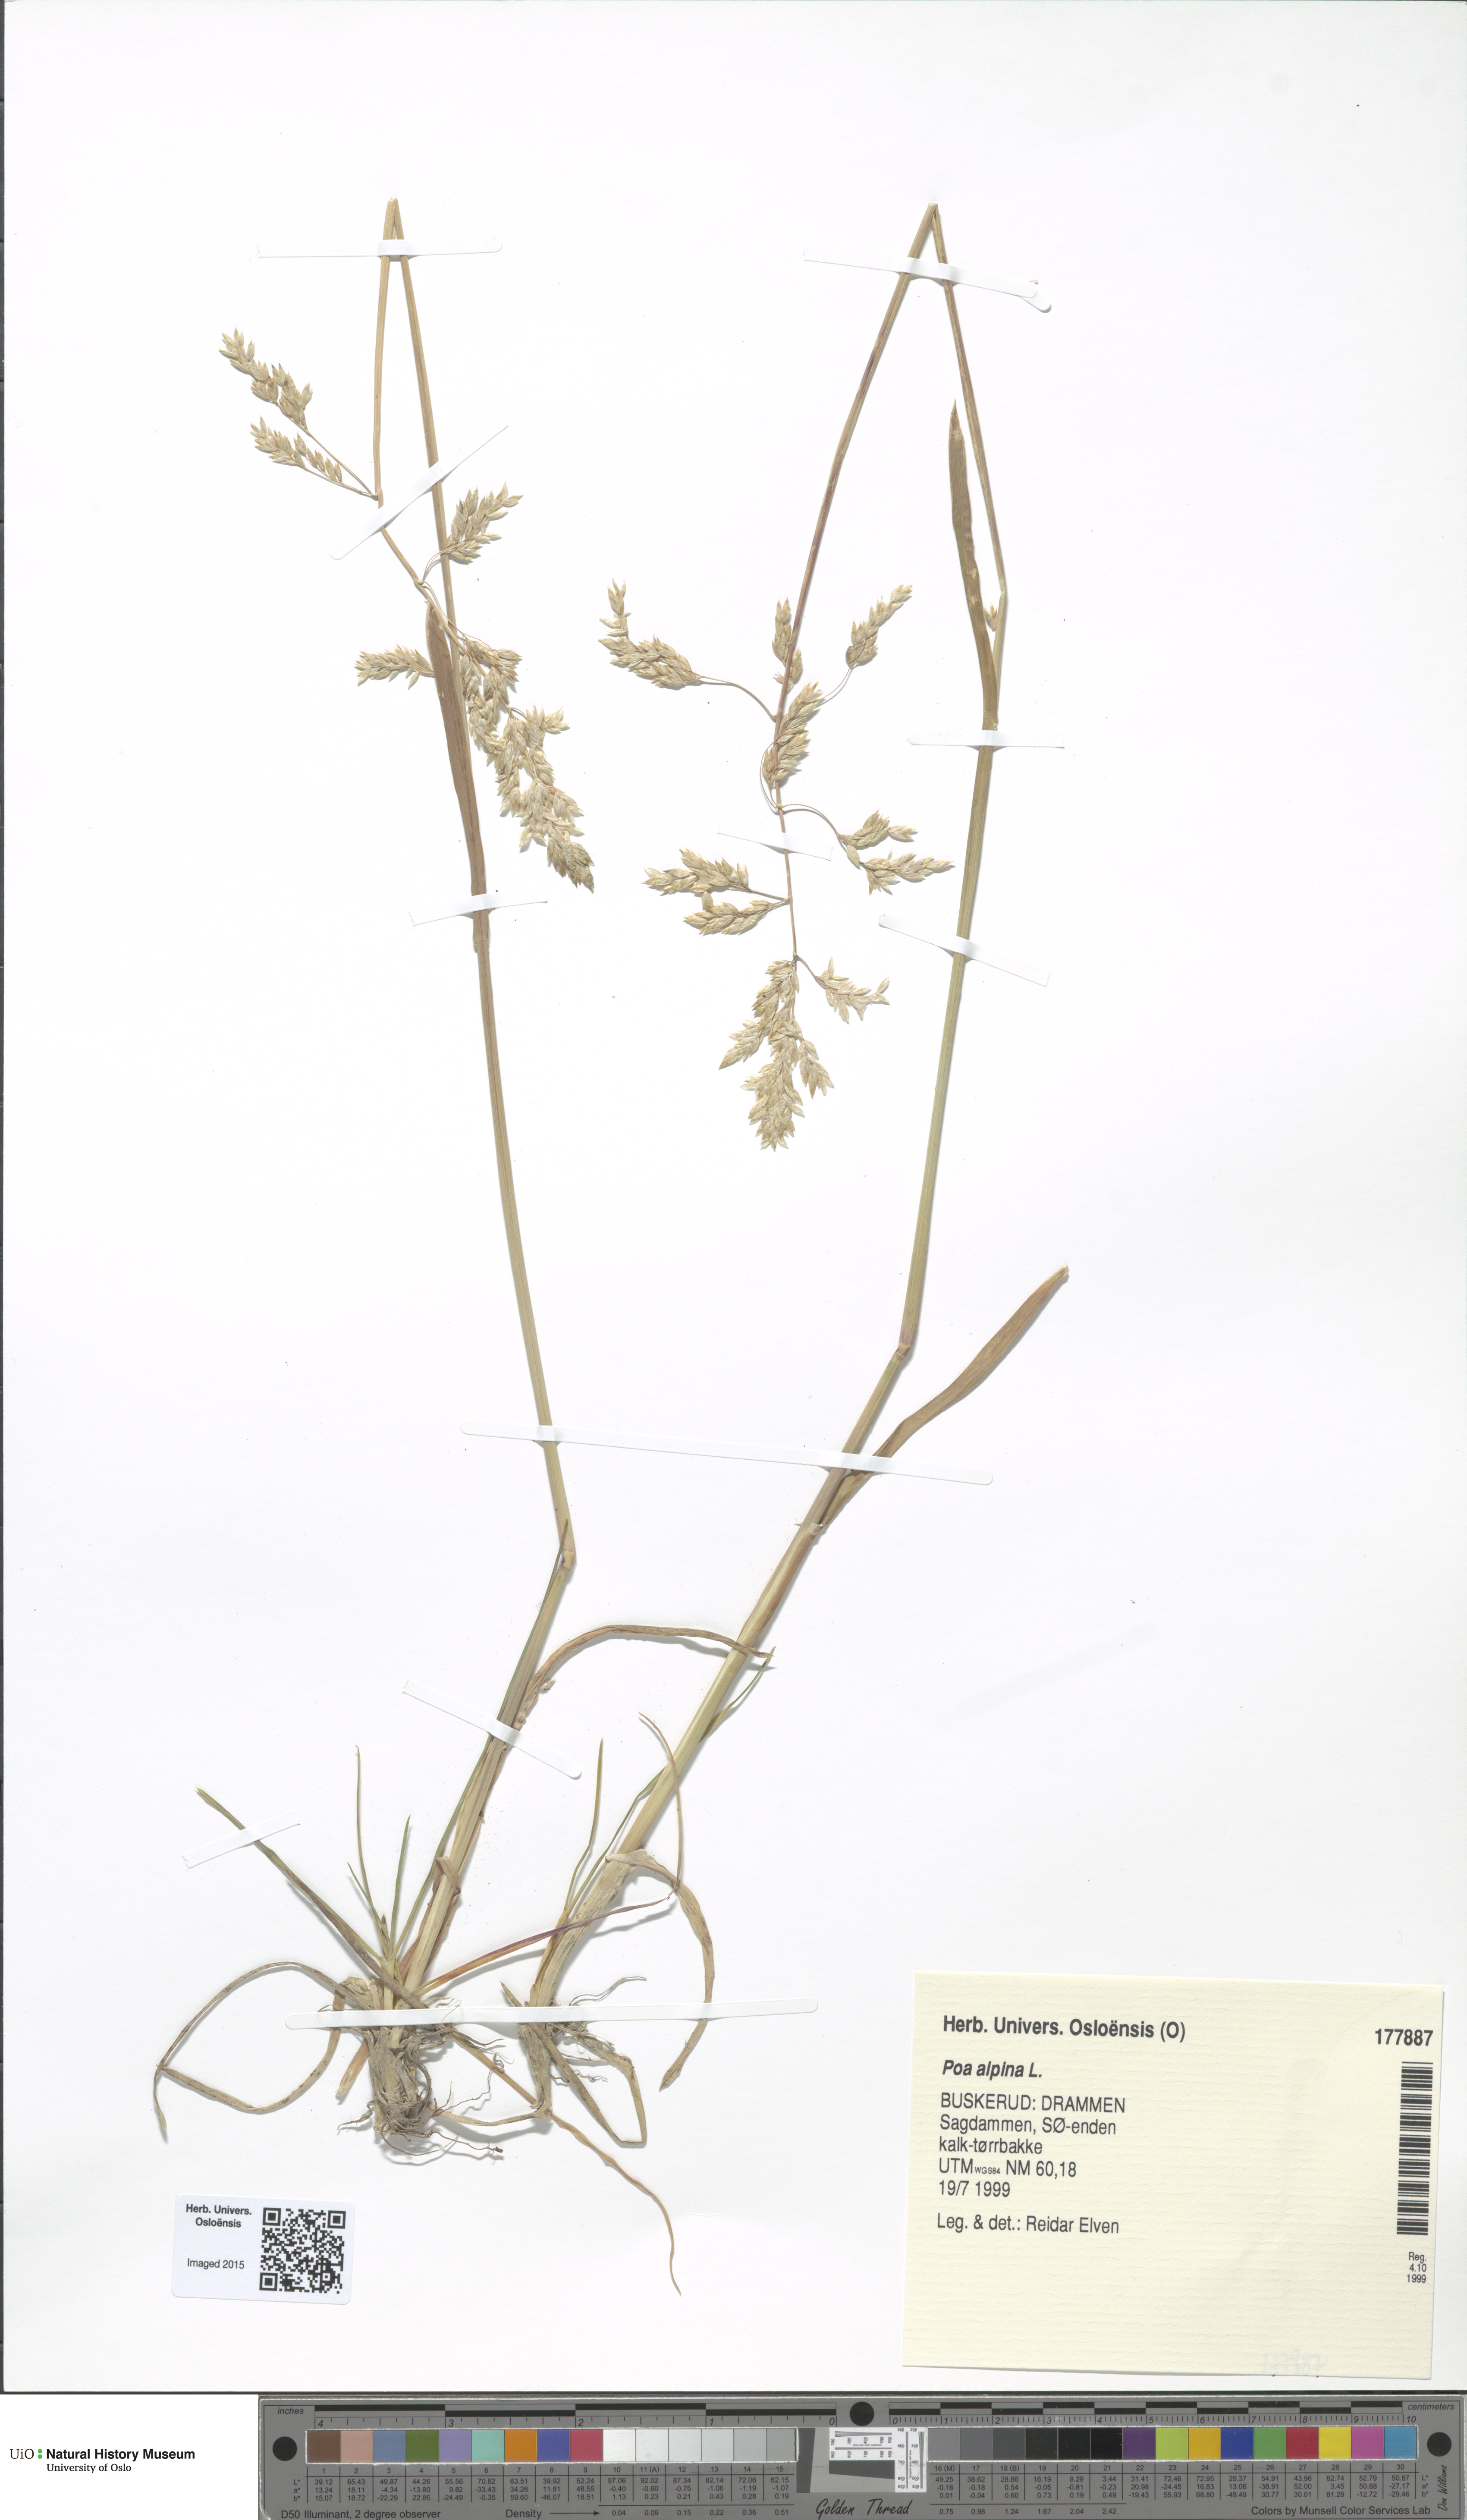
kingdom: Plantae
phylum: Tracheophyta
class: Liliopsida
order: Poales
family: Poaceae
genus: Poa
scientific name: Poa alpina
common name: Alpine bluegrass
